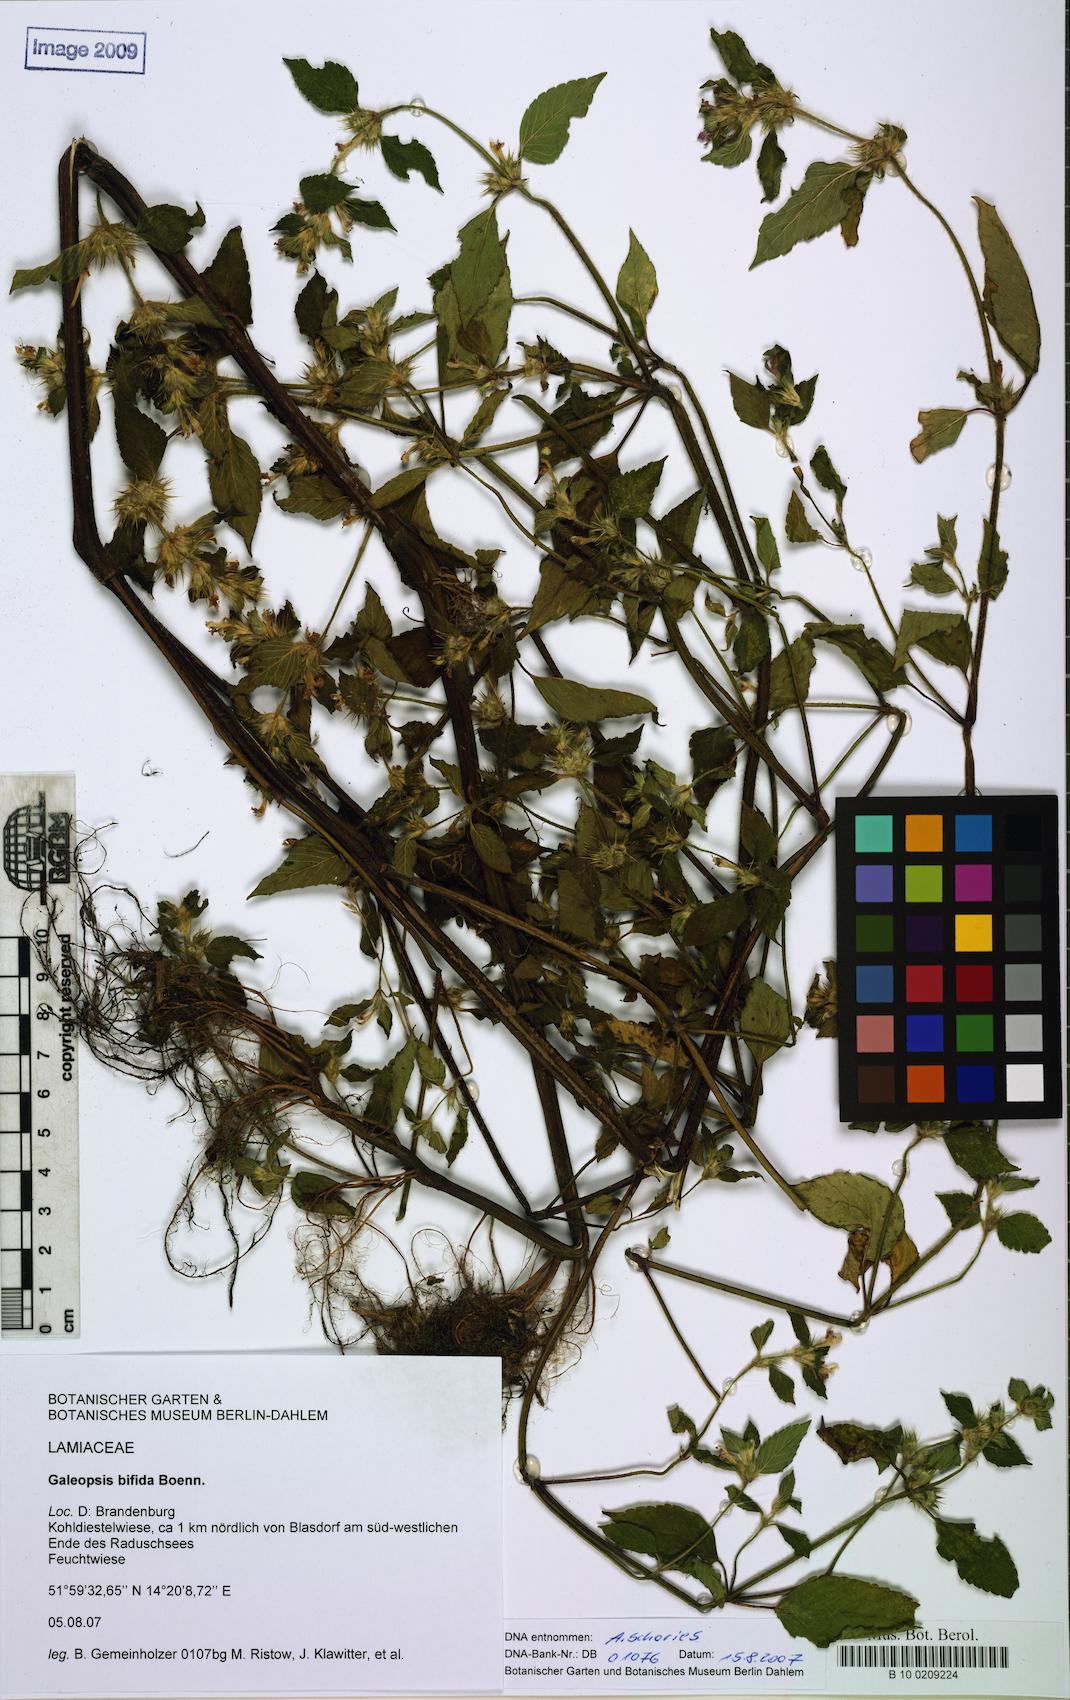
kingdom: Plantae
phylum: Tracheophyta
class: Magnoliopsida
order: Lamiales
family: Lamiaceae
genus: Galeopsis
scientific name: Galeopsis bifida
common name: Bifid hemp-nettle
